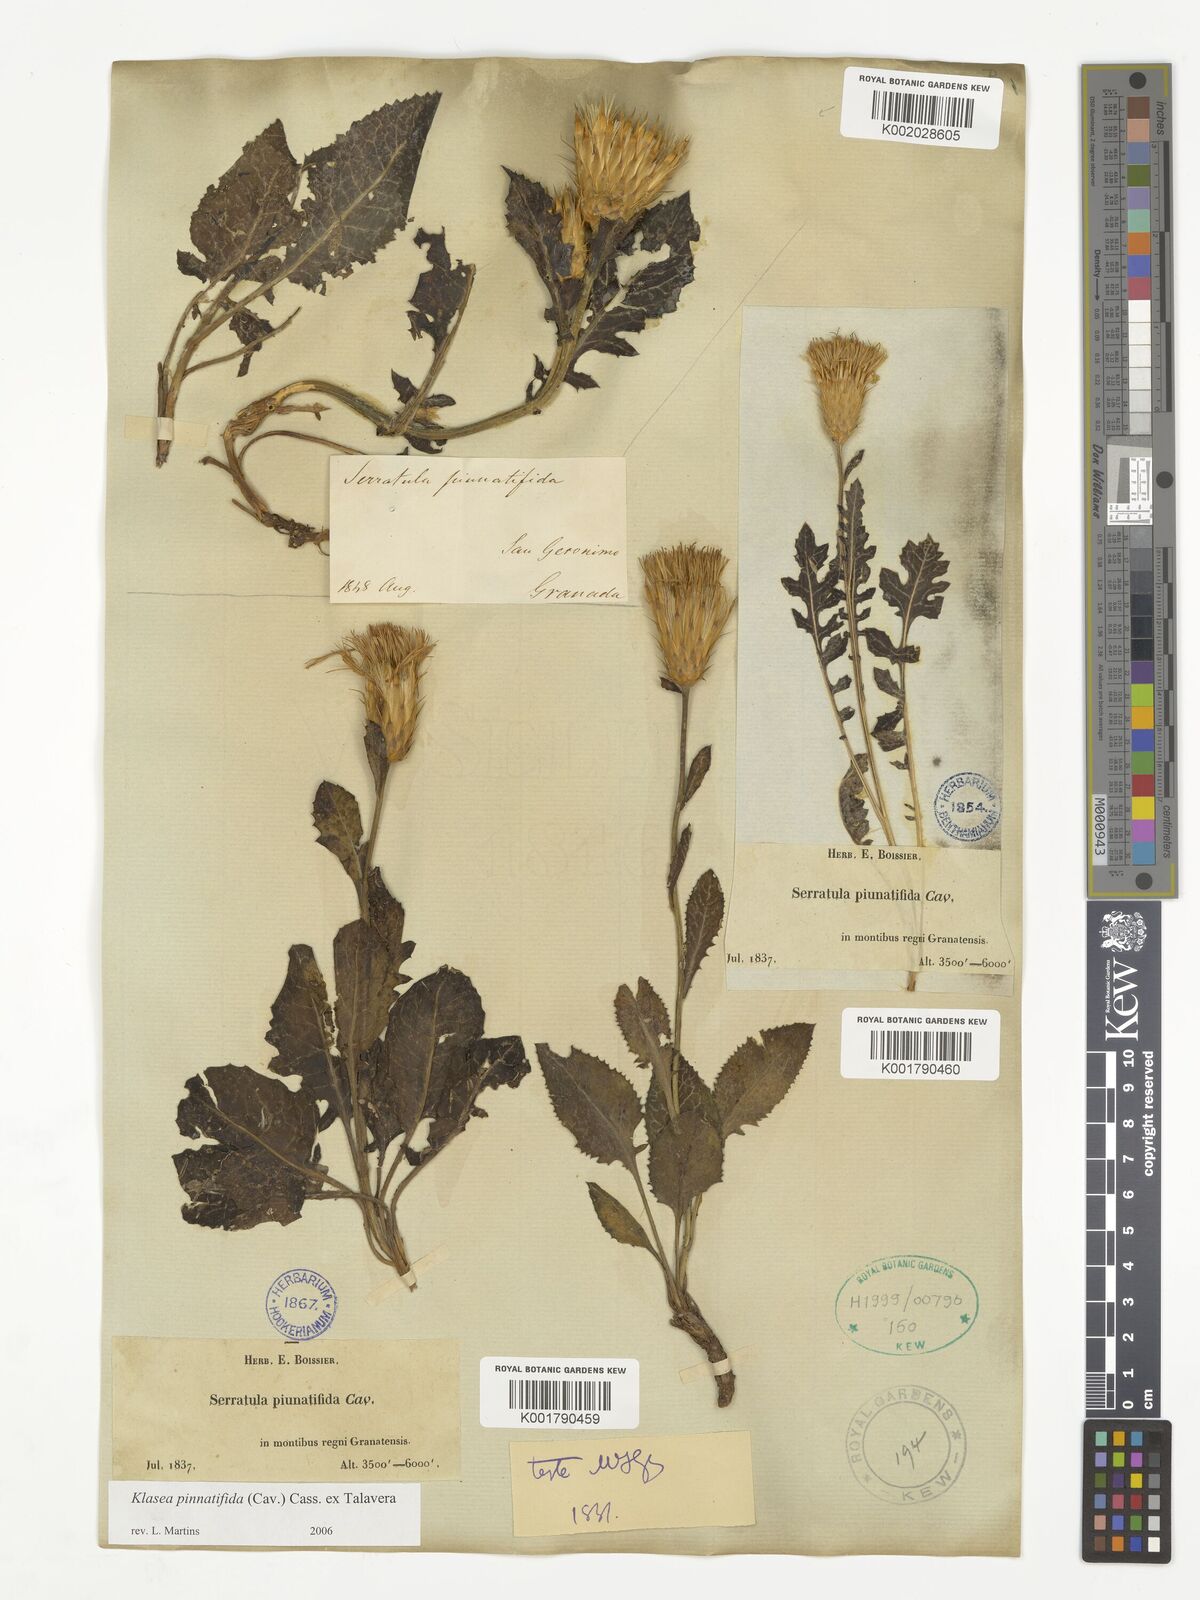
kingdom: Plantae
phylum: Tracheophyta
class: Magnoliopsida
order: Asterales
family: Asteraceae
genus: Klasea
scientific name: Klasea pinnatifida
